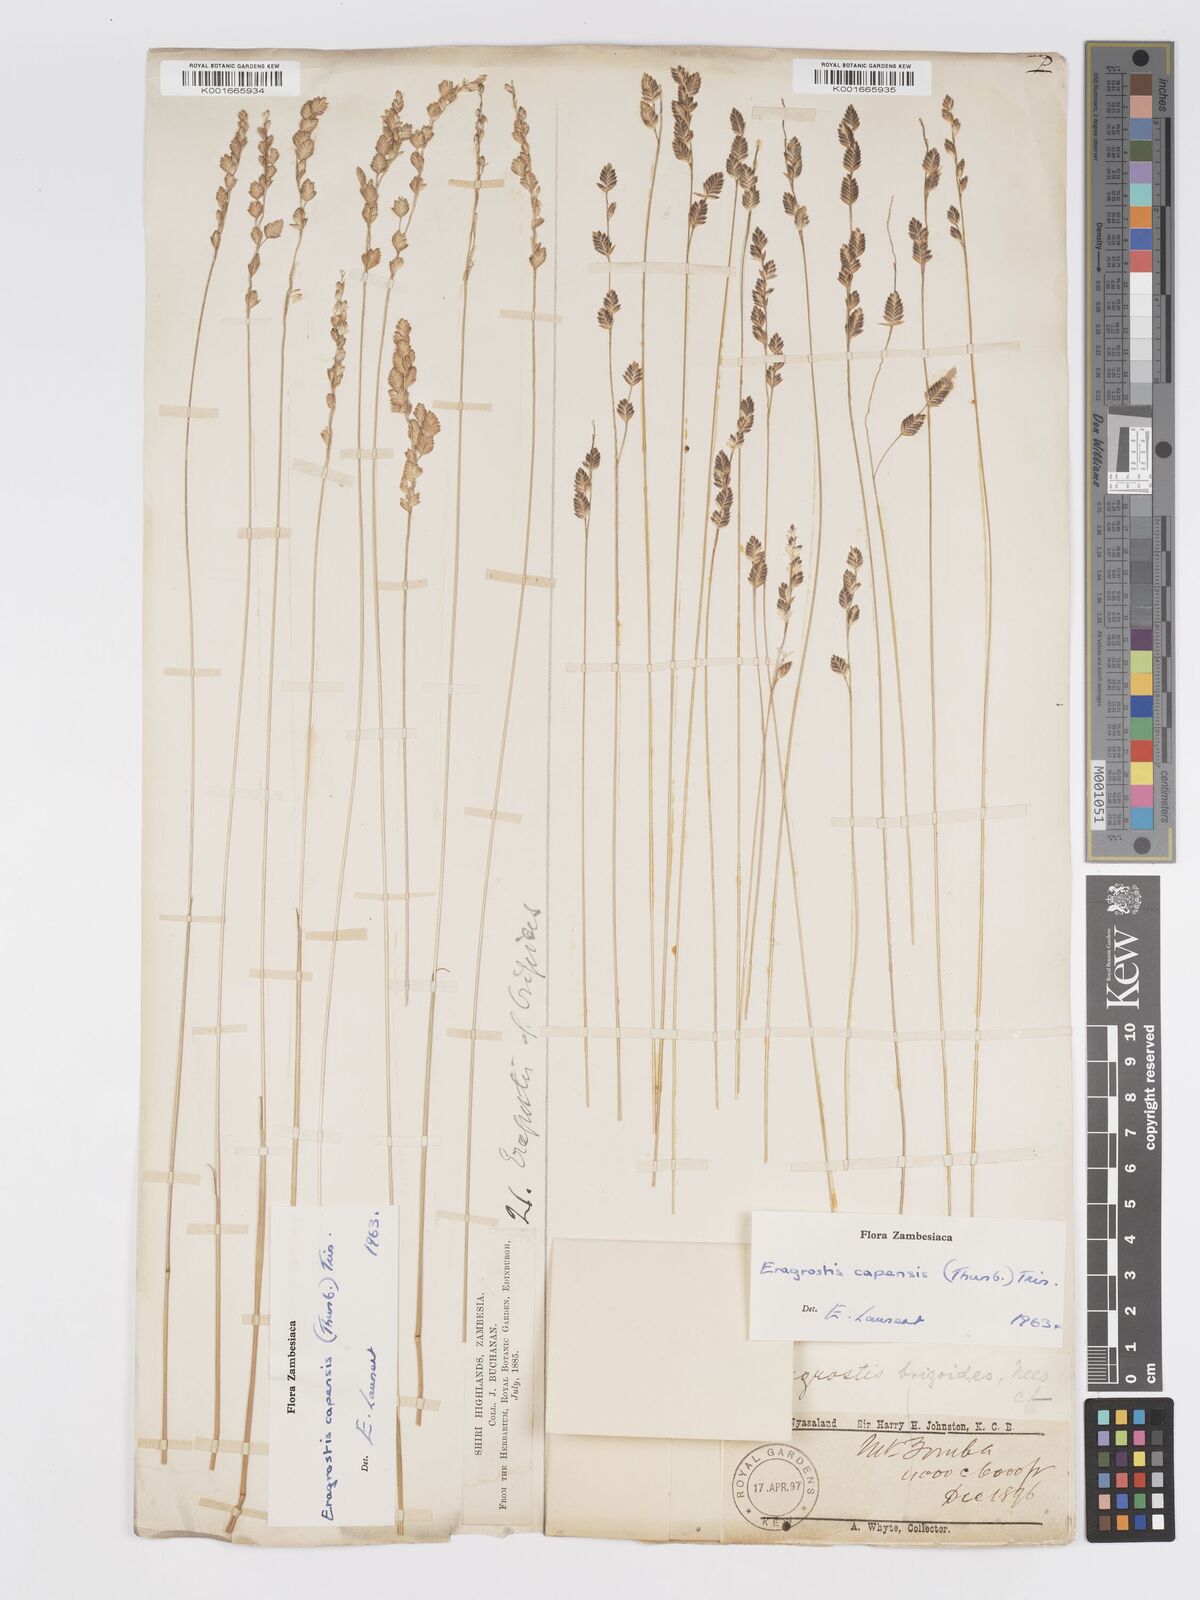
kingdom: Plantae
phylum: Tracheophyta
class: Liliopsida
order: Poales
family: Poaceae
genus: Eragrostis
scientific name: Eragrostis capensis
